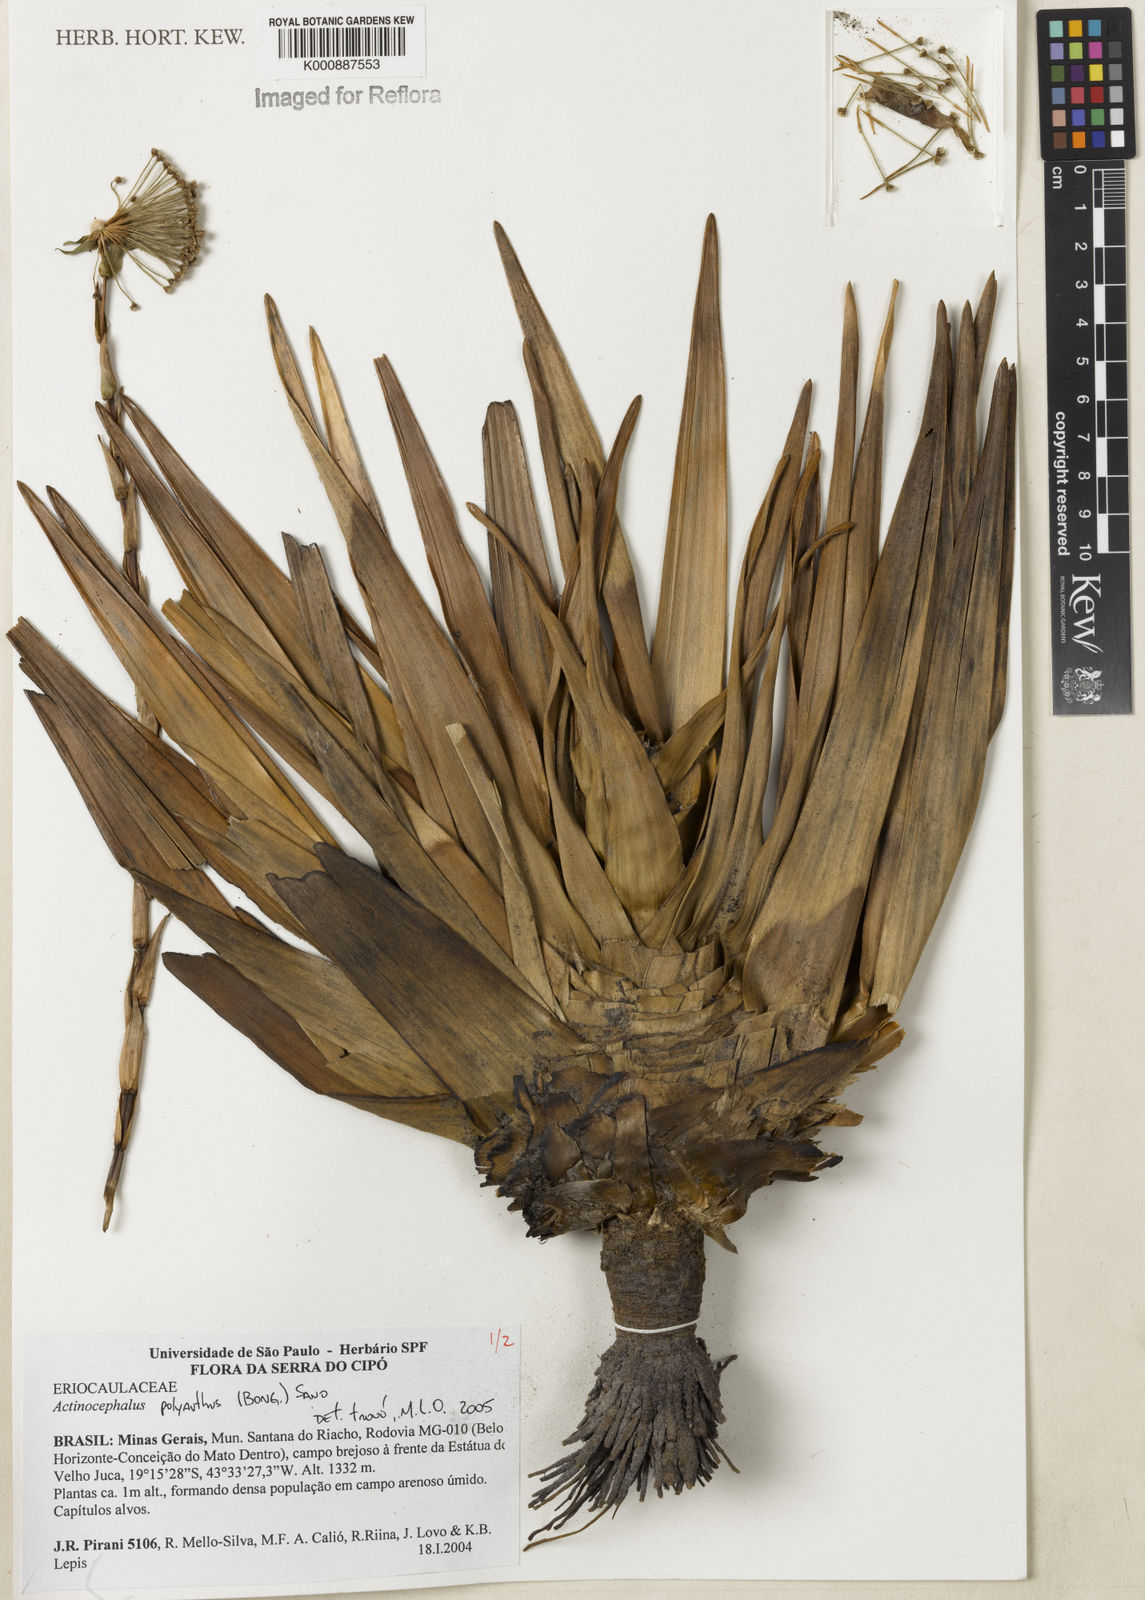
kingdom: Plantae
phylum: Tracheophyta
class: Liliopsida
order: Poales
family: Eriocaulaceae
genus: Paepalanthus
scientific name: Paepalanthus polyanthus
